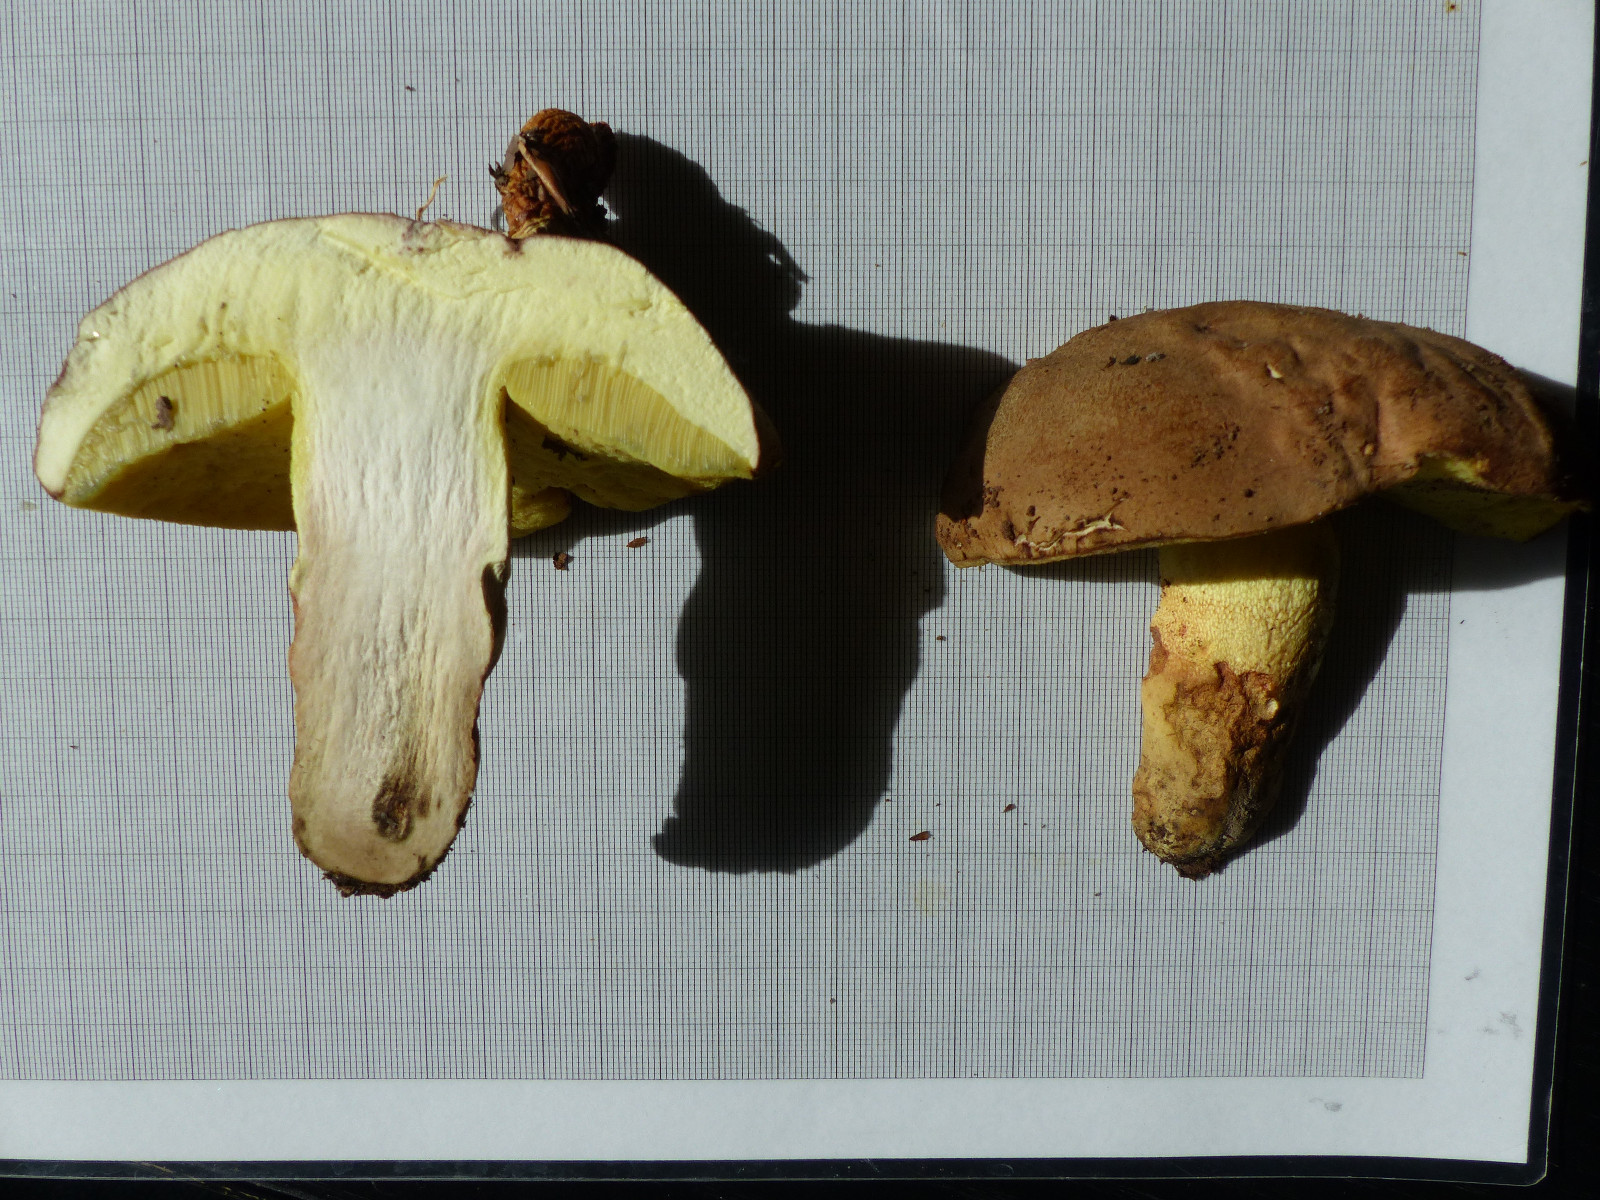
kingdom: Fungi
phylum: Basidiomycota
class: Agaricomycetes
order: Boletales
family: Boletaceae
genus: Butyriboletus
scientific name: Butyriboletus appendiculatus
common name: tenstokket rørhat
